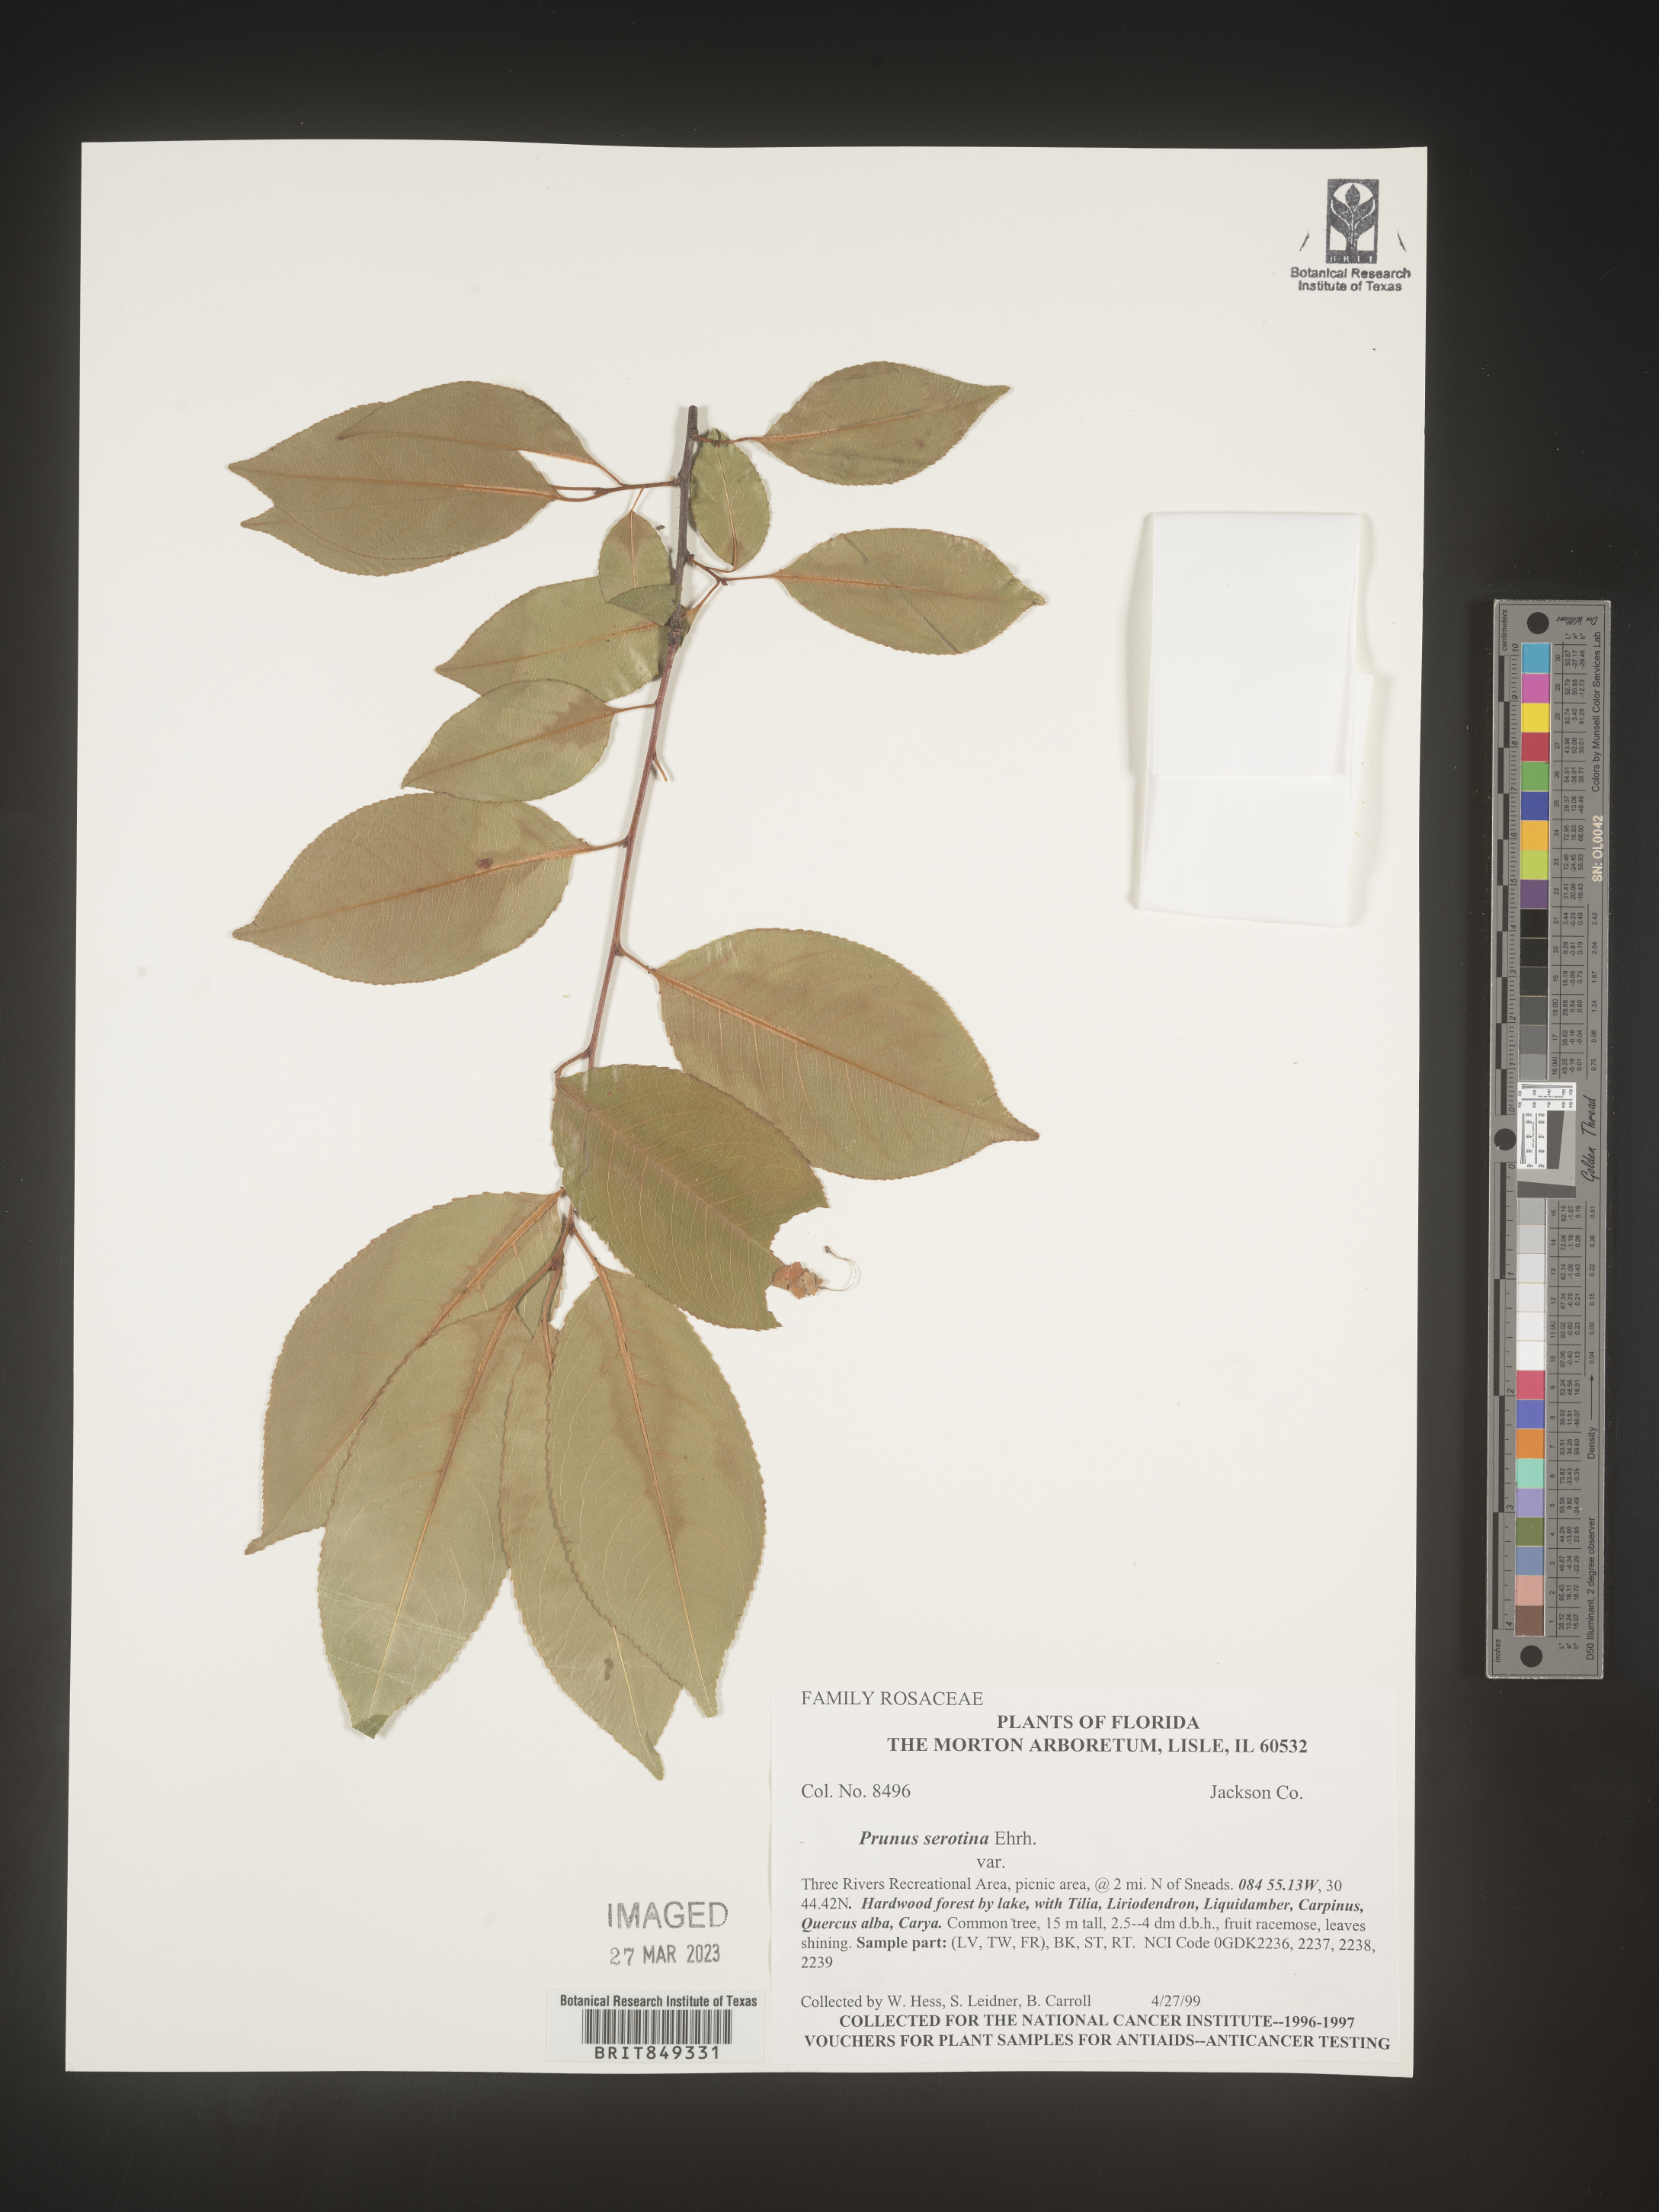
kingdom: Plantae
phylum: Tracheophyta
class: Magnoliopsida
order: Rosales
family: Rosaceae
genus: Prunus
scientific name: Prunus serotina
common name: Black cherry
